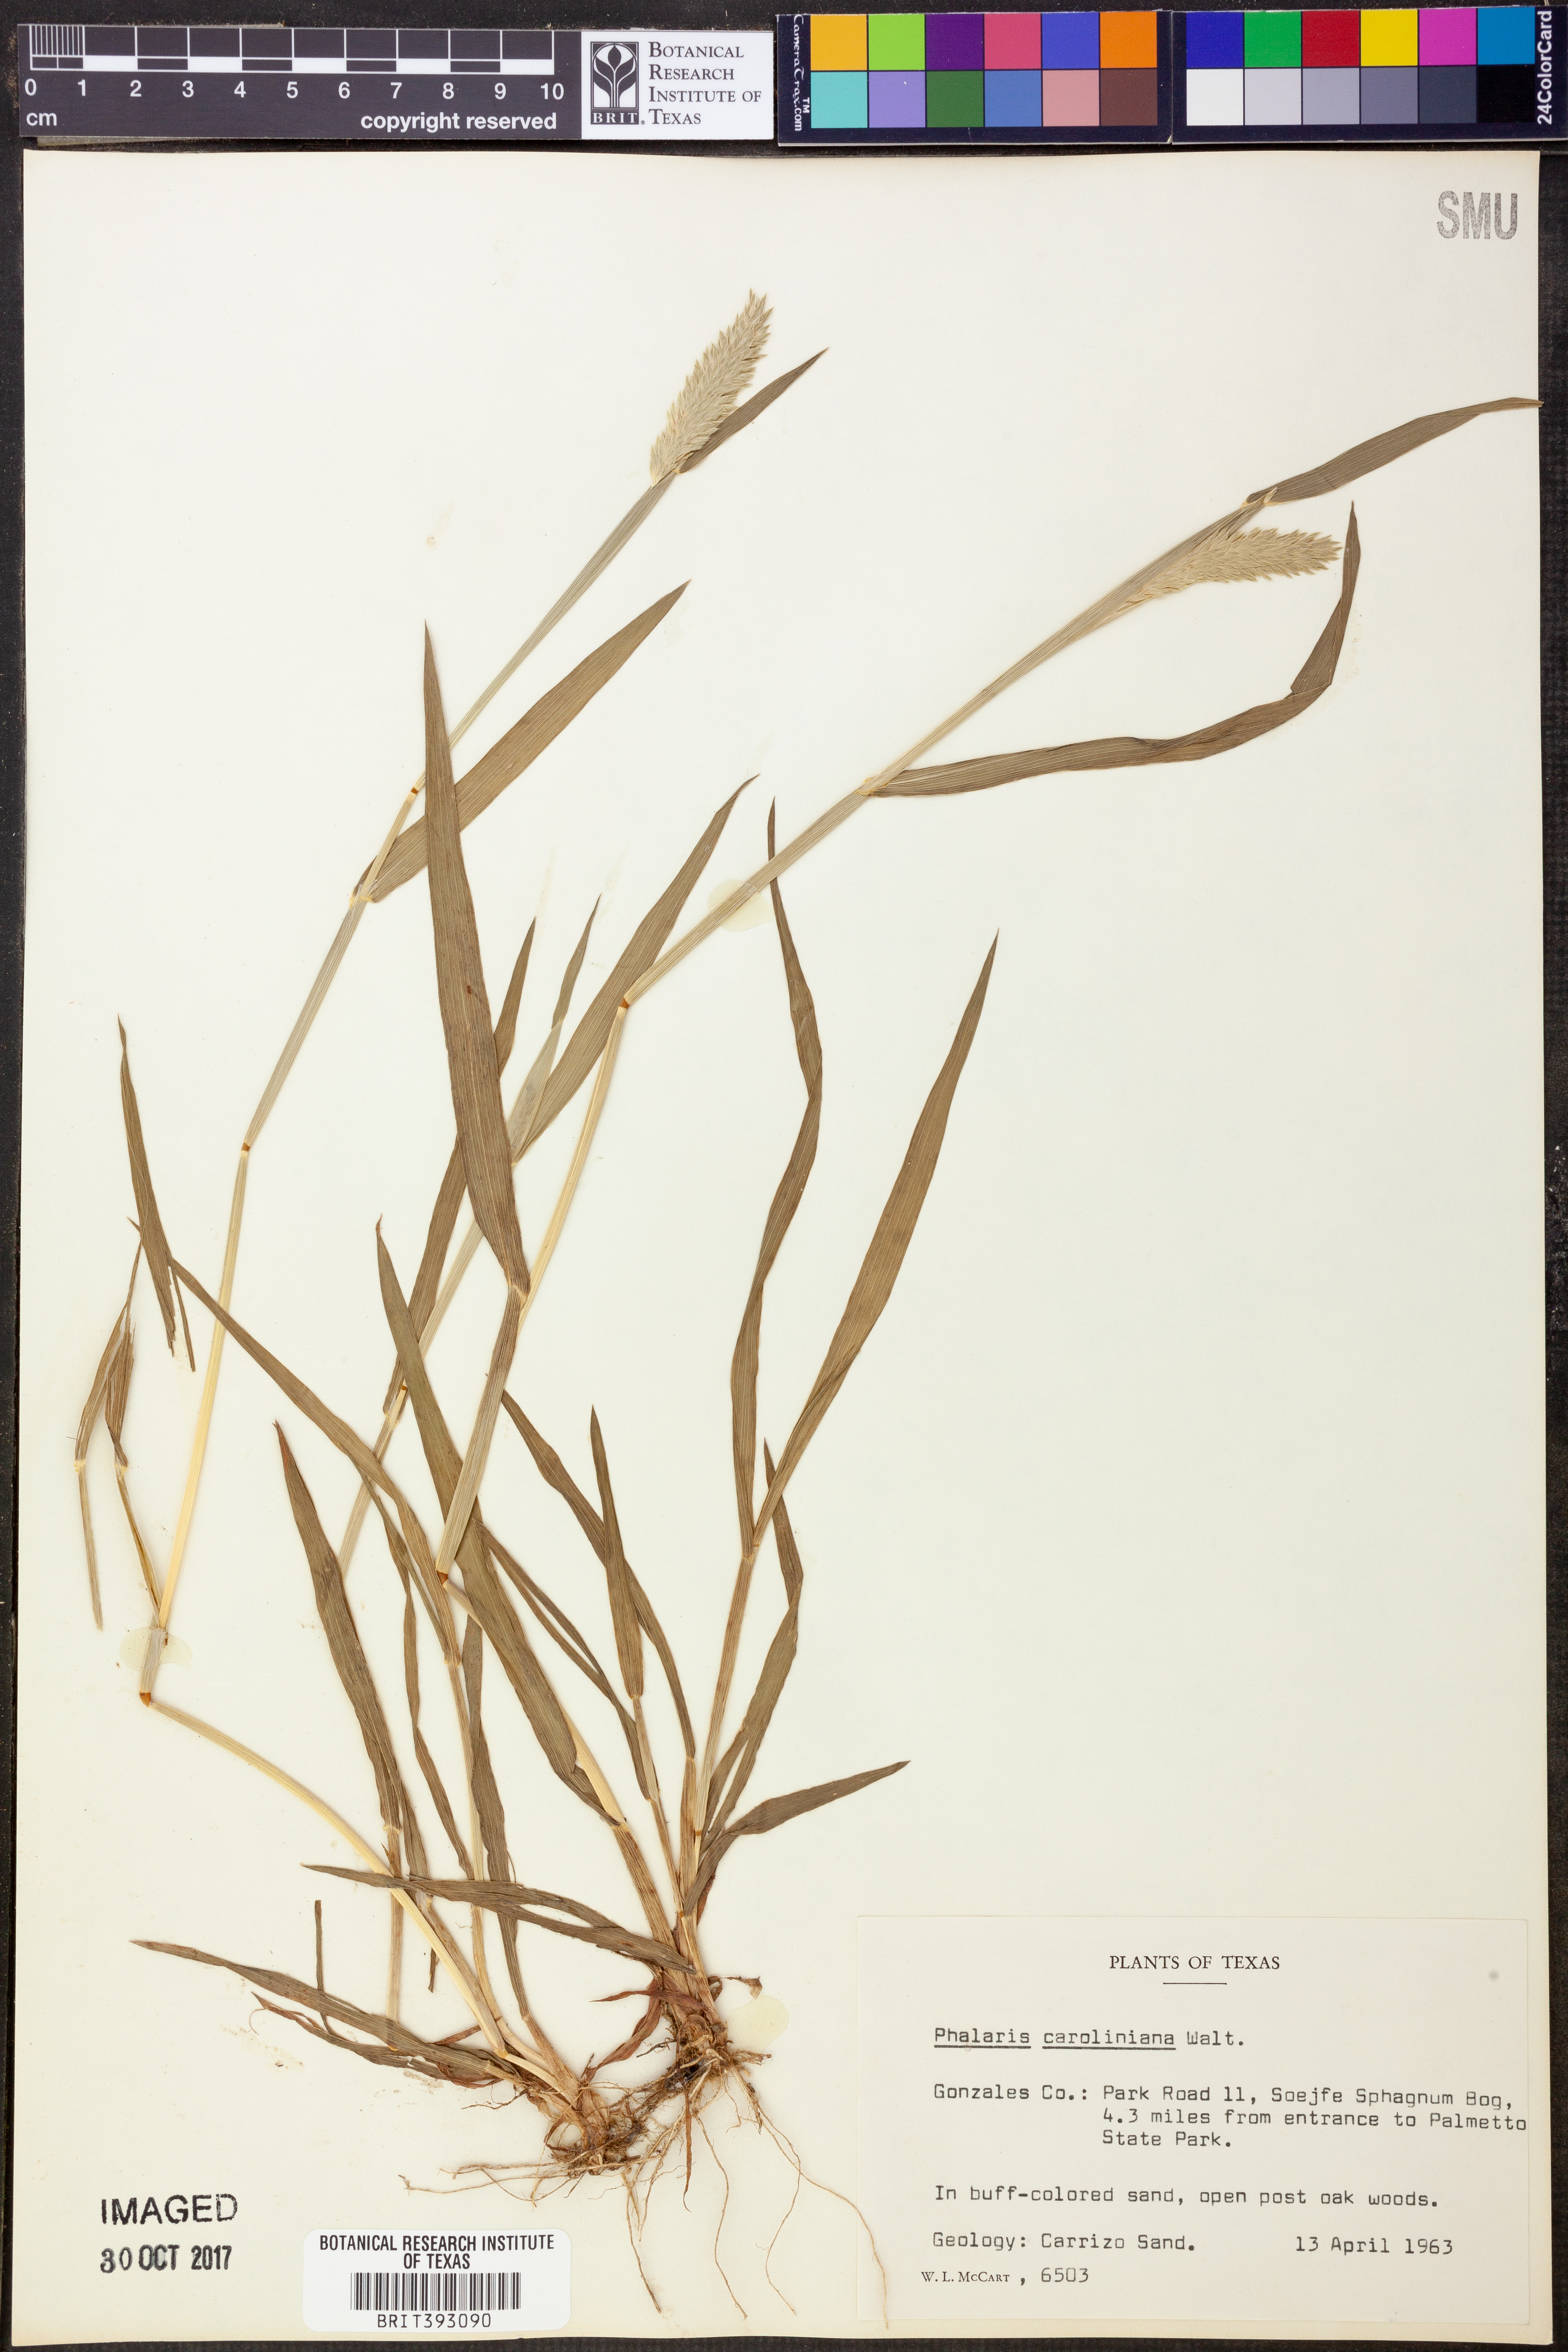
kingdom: Plantae
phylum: Tracheophyta
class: Liliopsida
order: Poales
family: Poaceae
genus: Phalaris
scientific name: Phalaris caroliniana
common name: May grass
